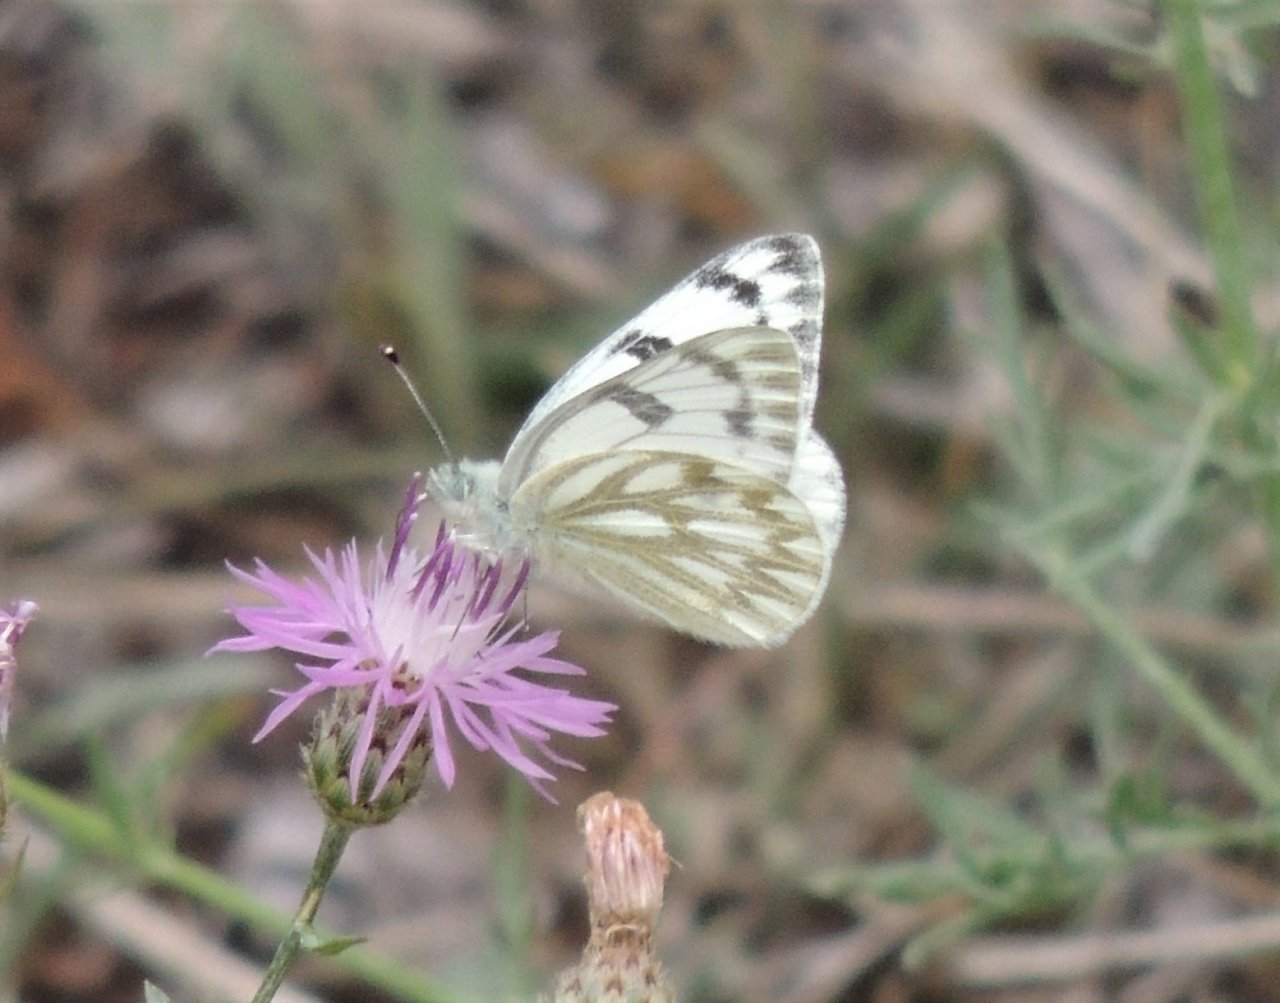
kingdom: Animalia
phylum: Arthropoda
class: Insecta
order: Lepidoptera
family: Pieridae
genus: Pontia
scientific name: Pontia occidentalis
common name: Western White
